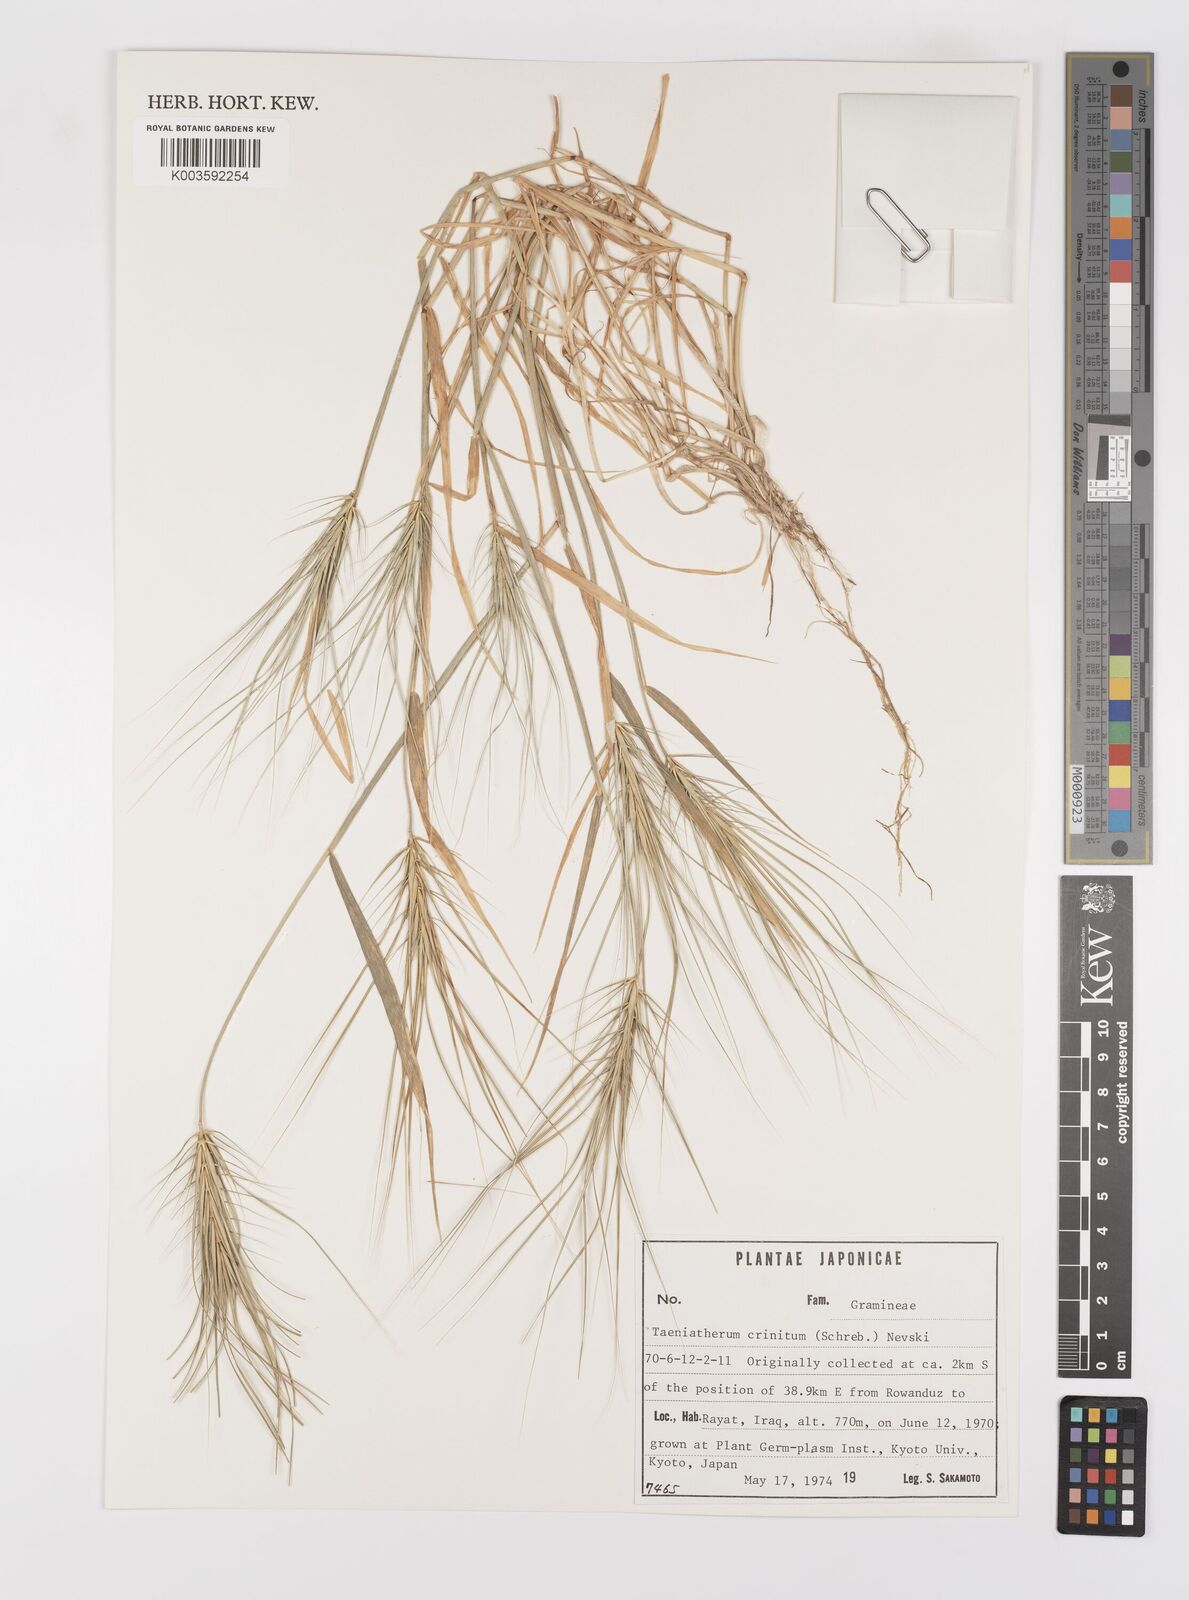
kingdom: Plantae
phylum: Tracheophyta
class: Liliopsida
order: Poales
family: Poaceae
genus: Taeniatherum
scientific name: Taeniatherum caput-medusae
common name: Medusahead
